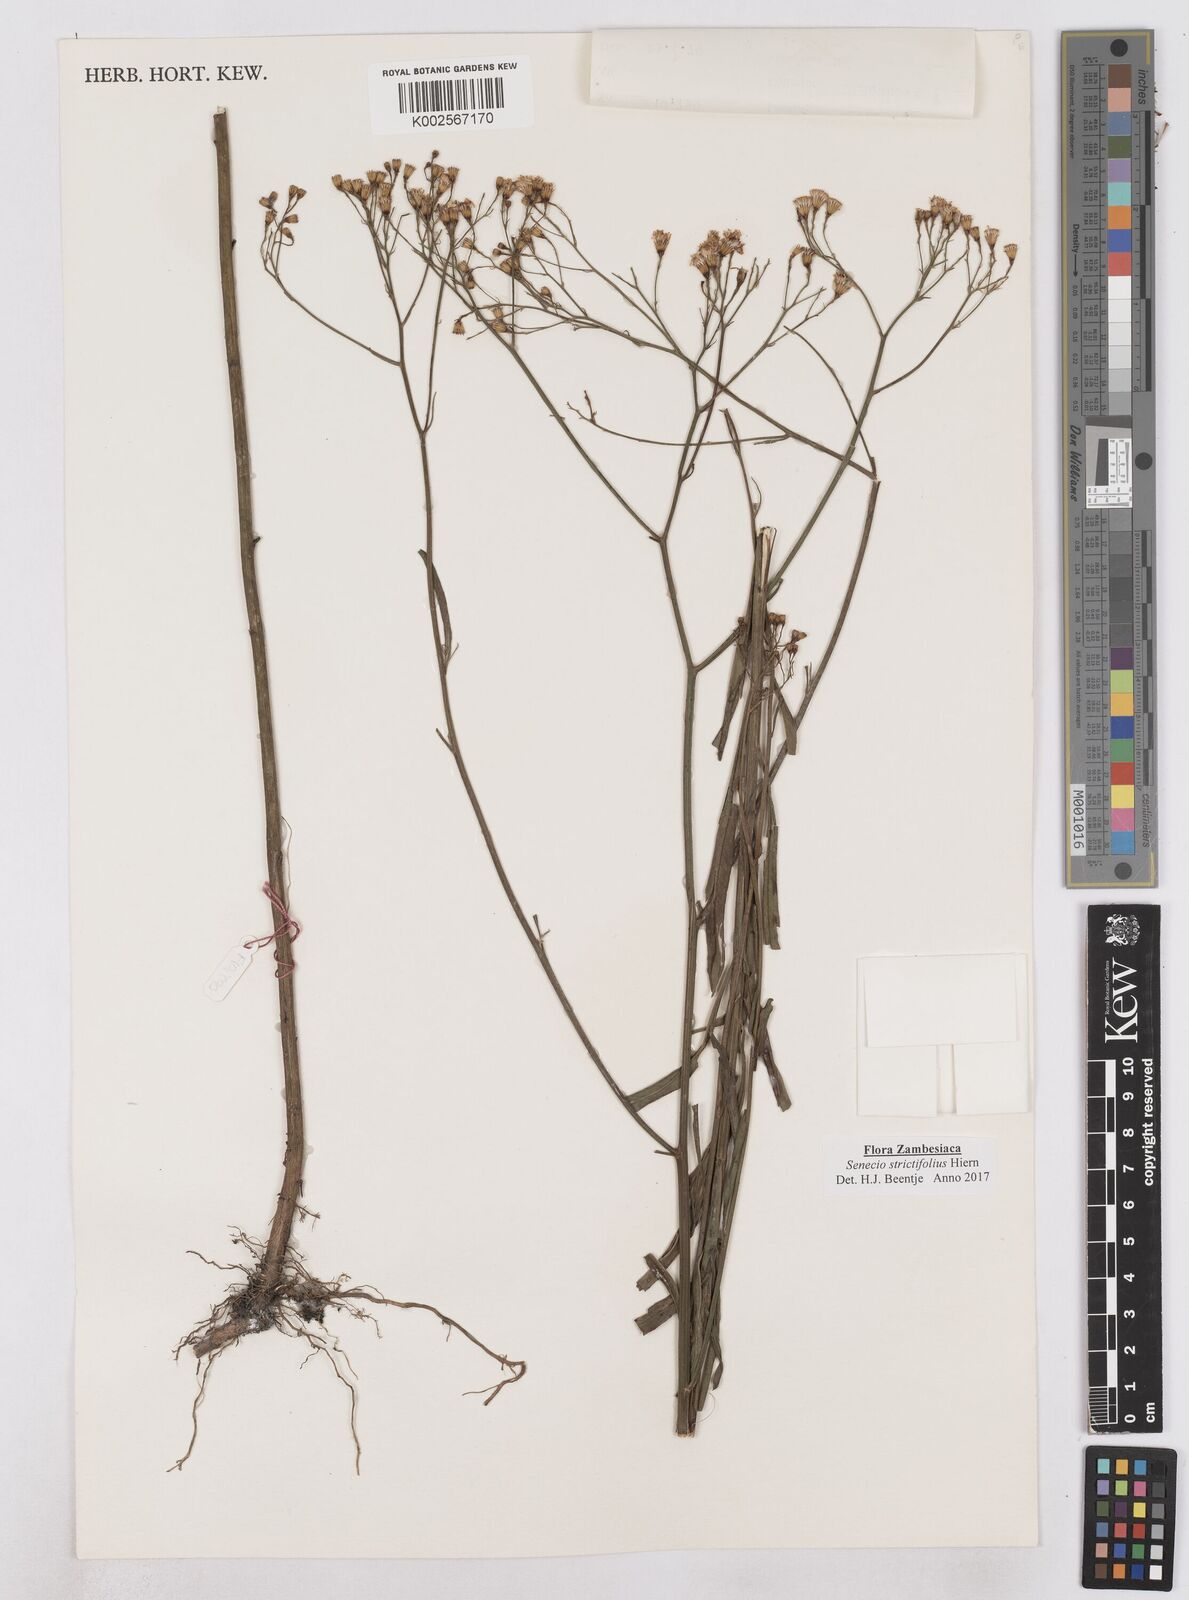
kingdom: Plantae
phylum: Tracheophyta
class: Magnoliopsida
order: Asterales
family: Asteraceae
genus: Senecio
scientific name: Senecio strictifolius
